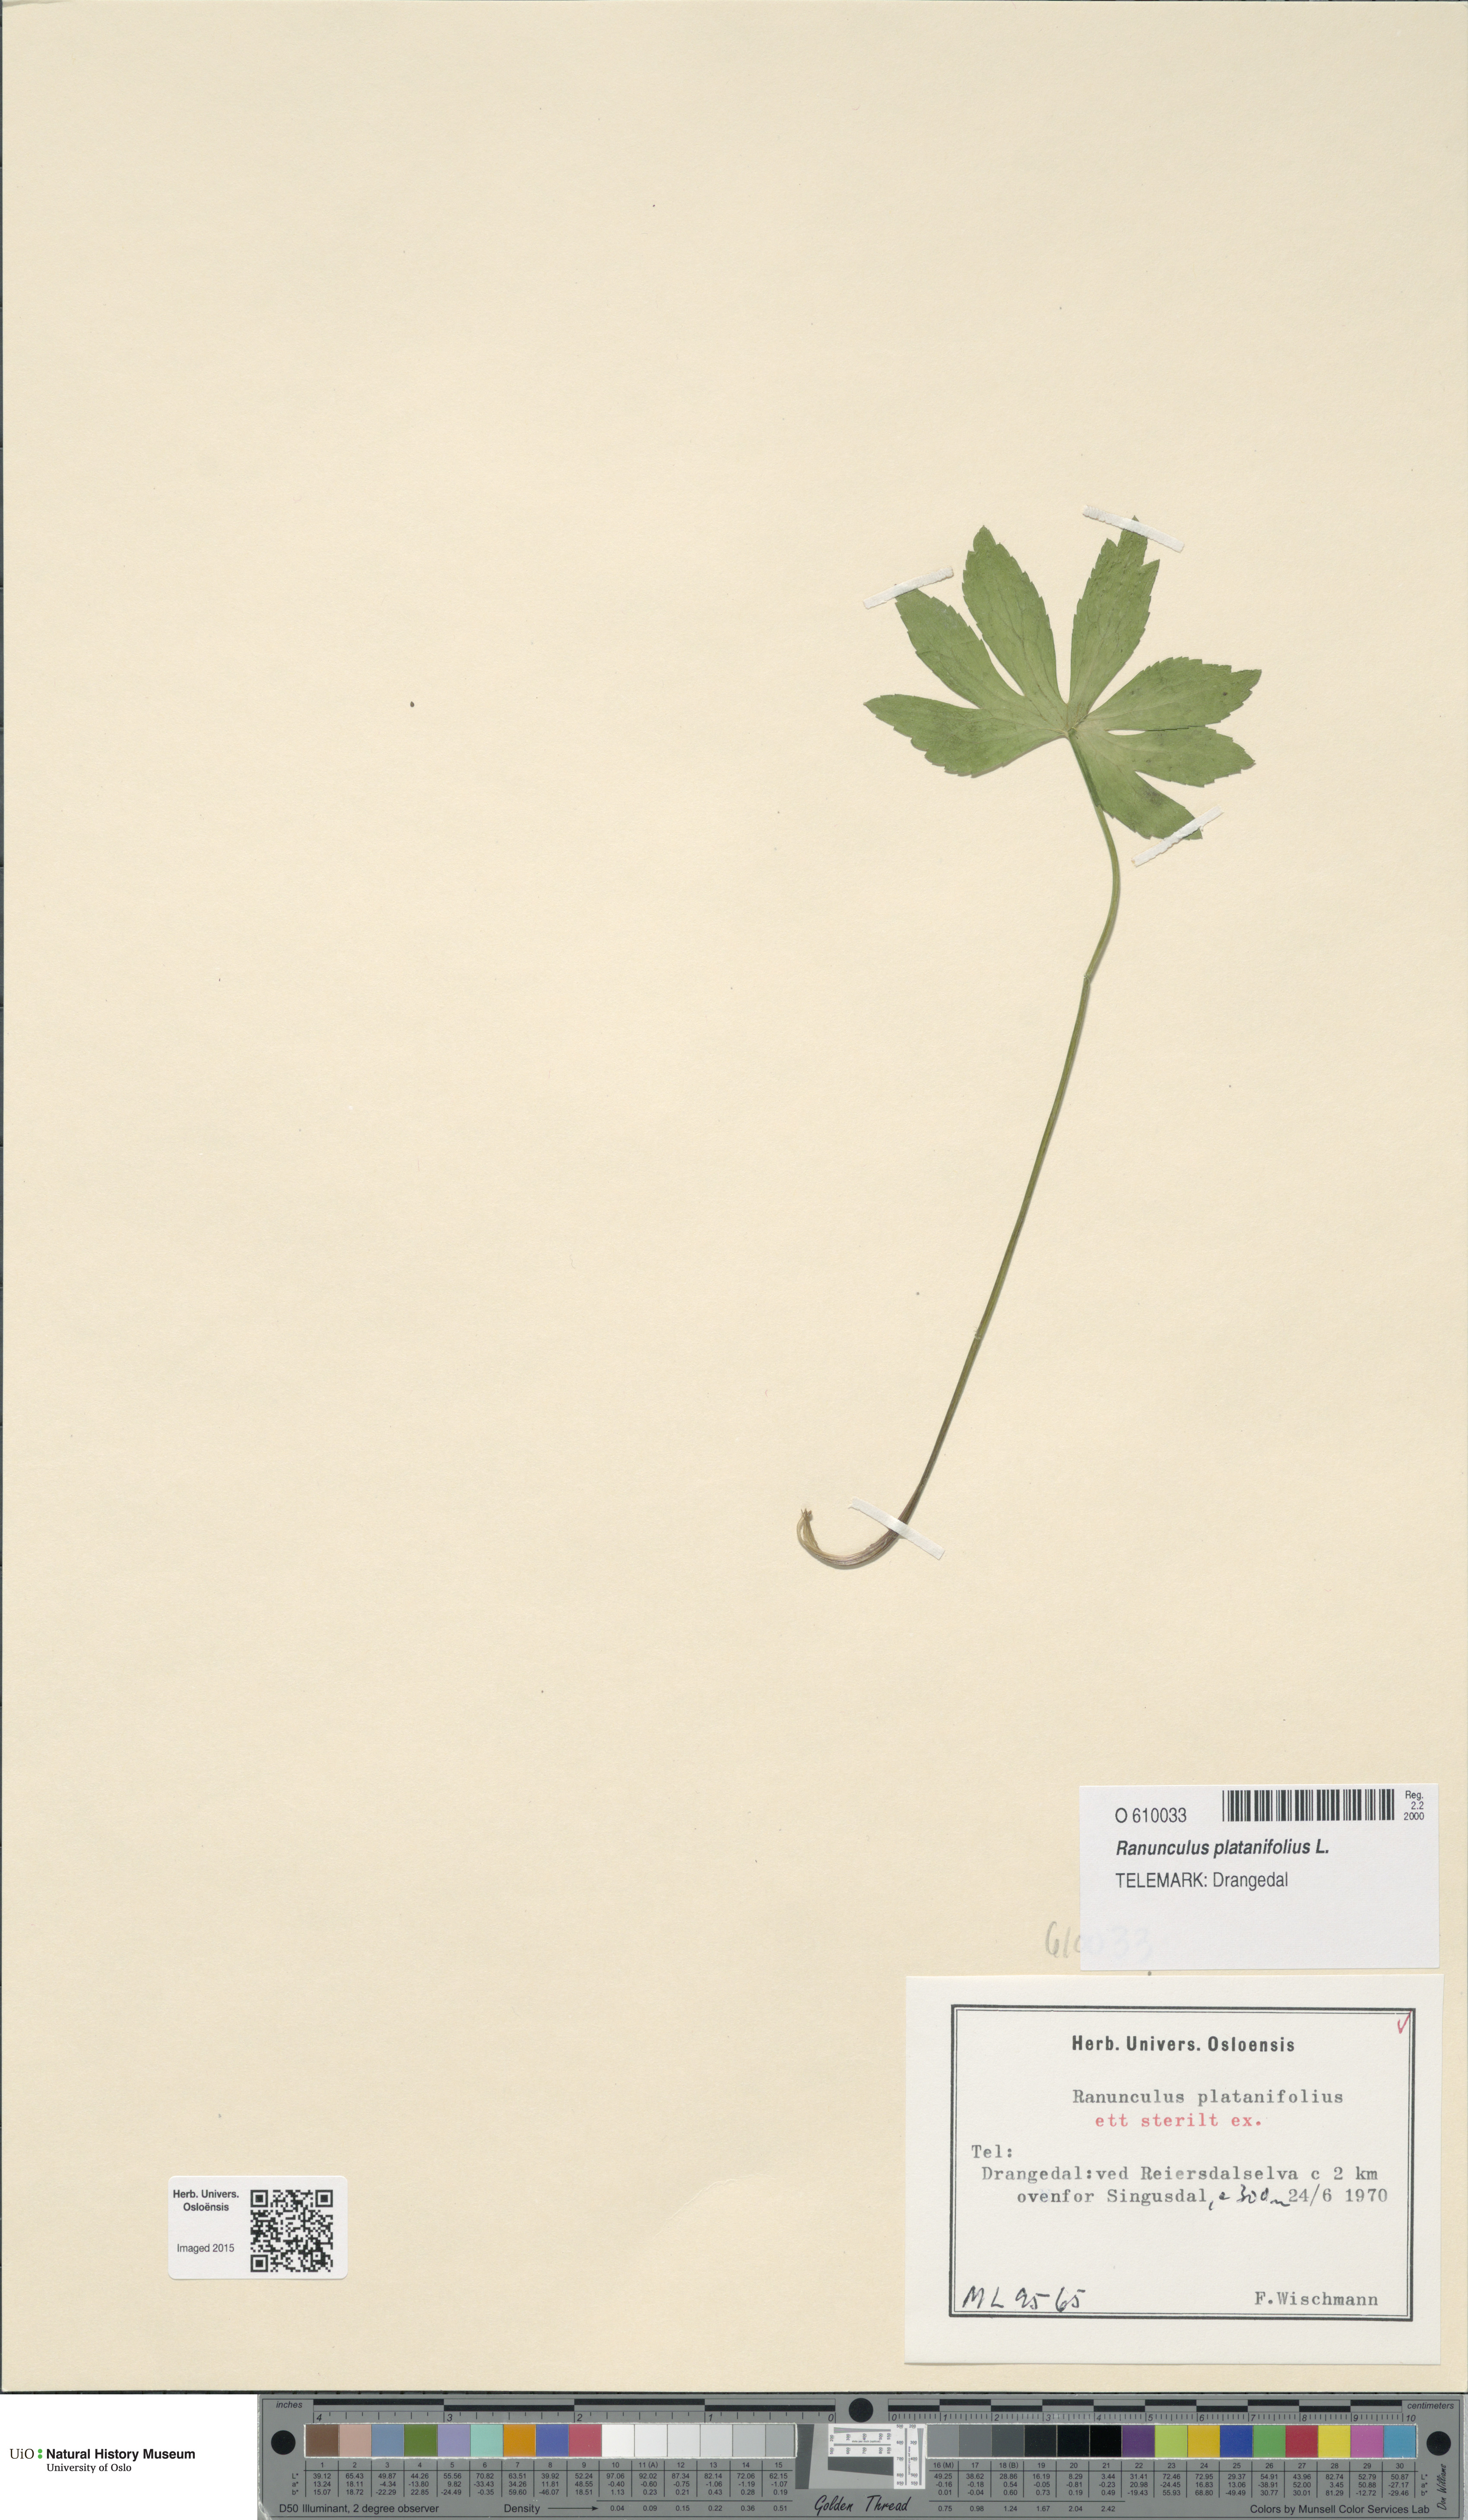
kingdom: Plantae
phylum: Tracheophyta
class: Magnoliopsida
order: Ranunculales
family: Ranunculaceae
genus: Ranunculus
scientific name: Ranunculus platanifolius
